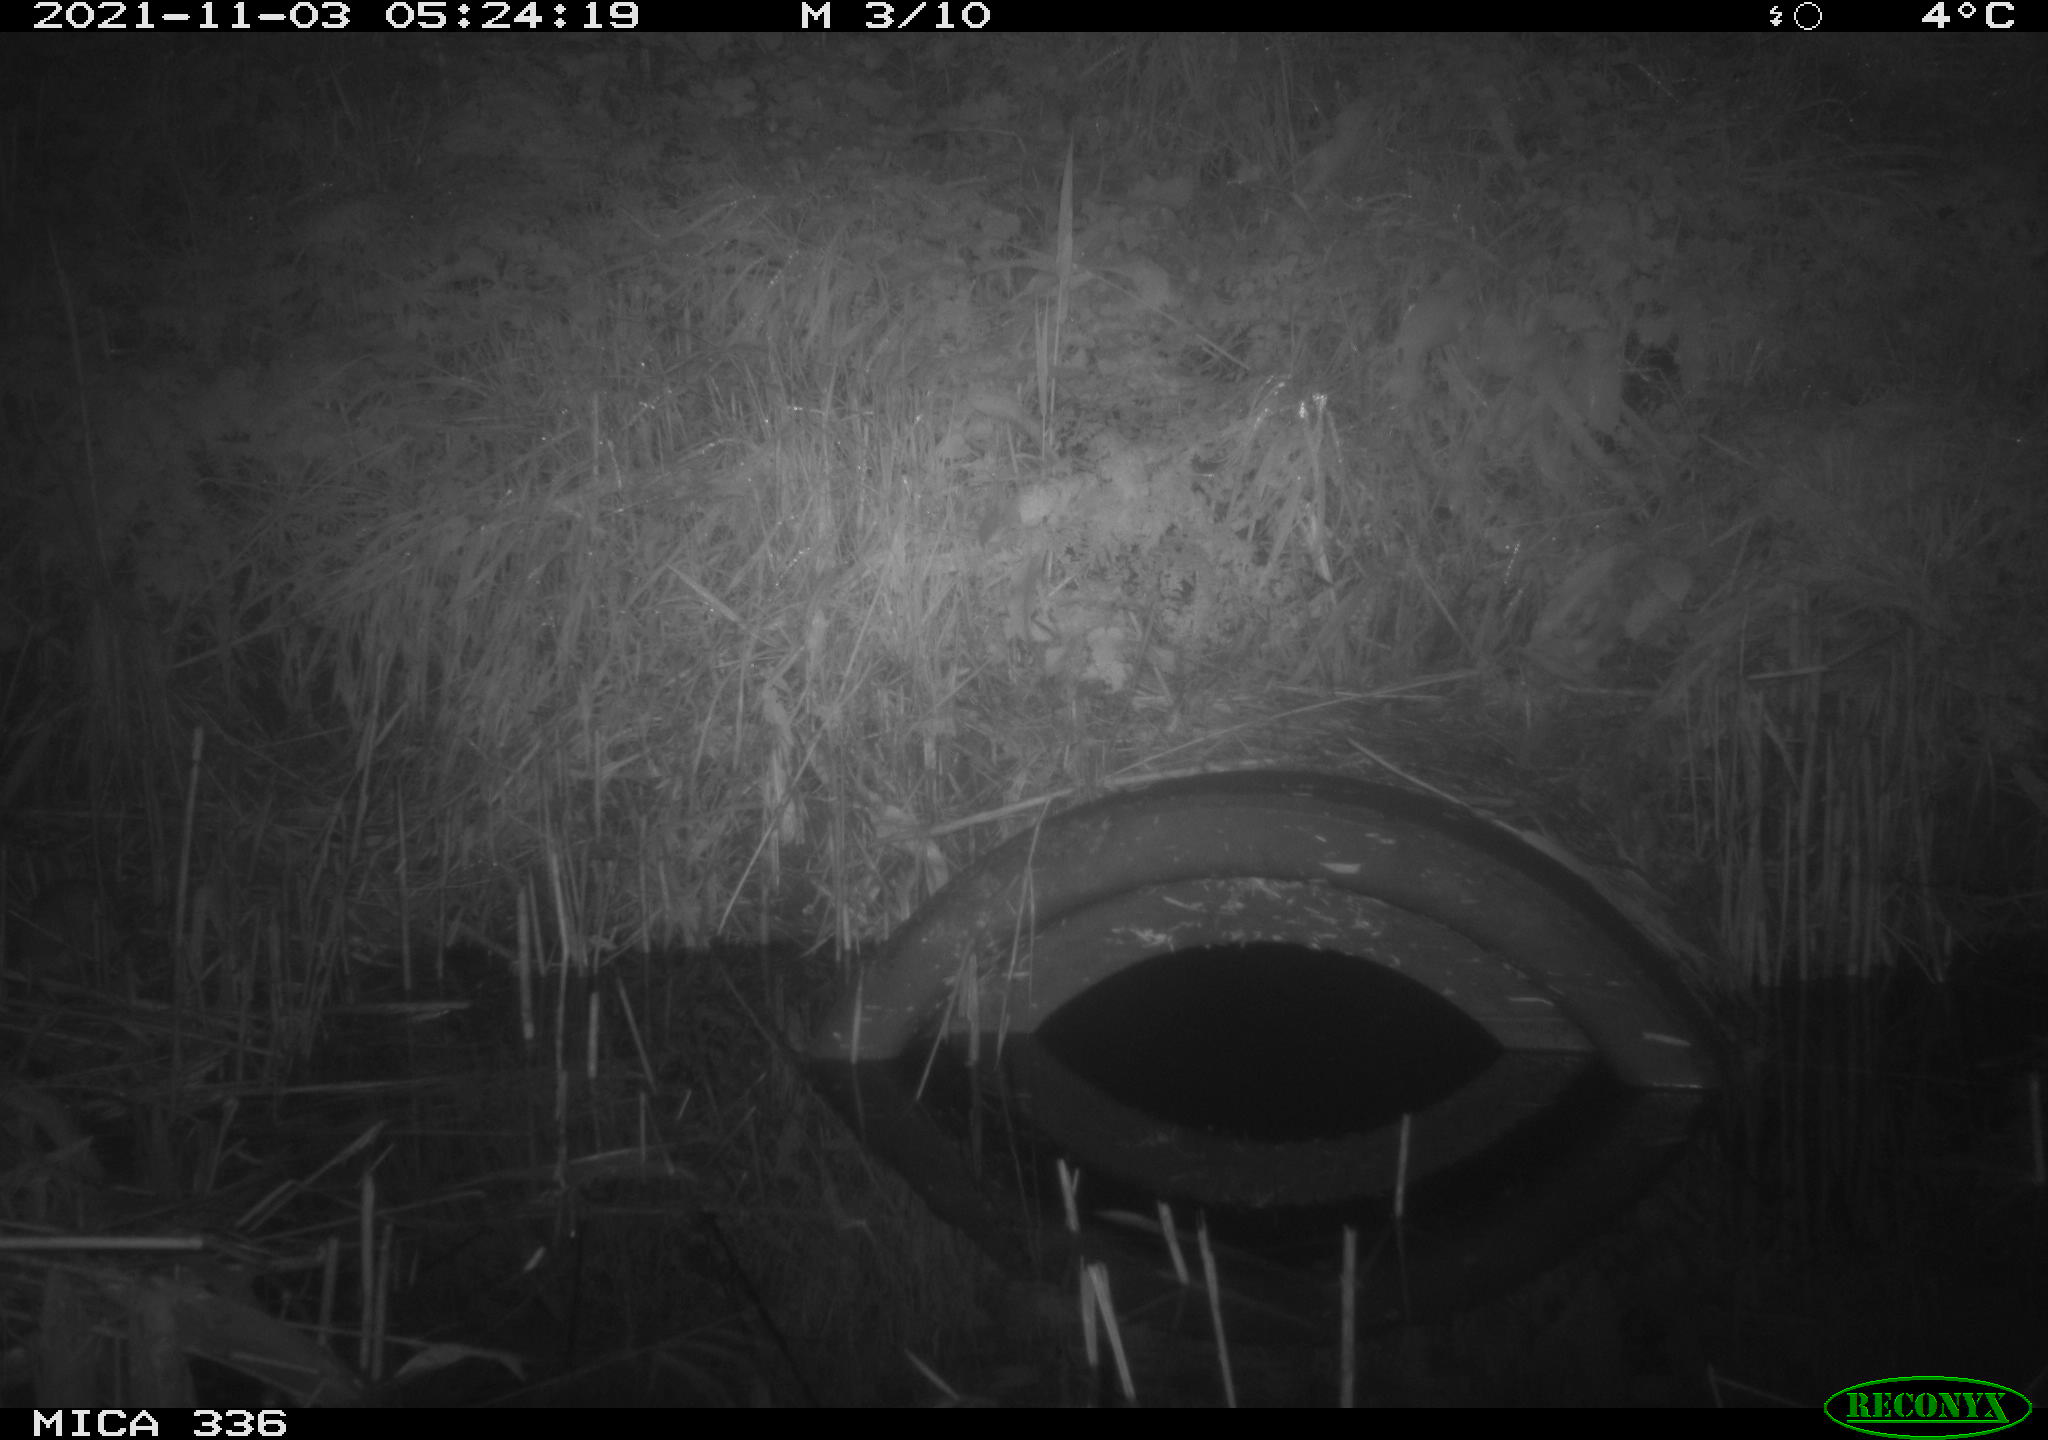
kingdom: Animalia
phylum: Chordata
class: Mammalia
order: Rodentia
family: Muridae
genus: Rattus
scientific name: Rattus norvegicus
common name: Brown rat
